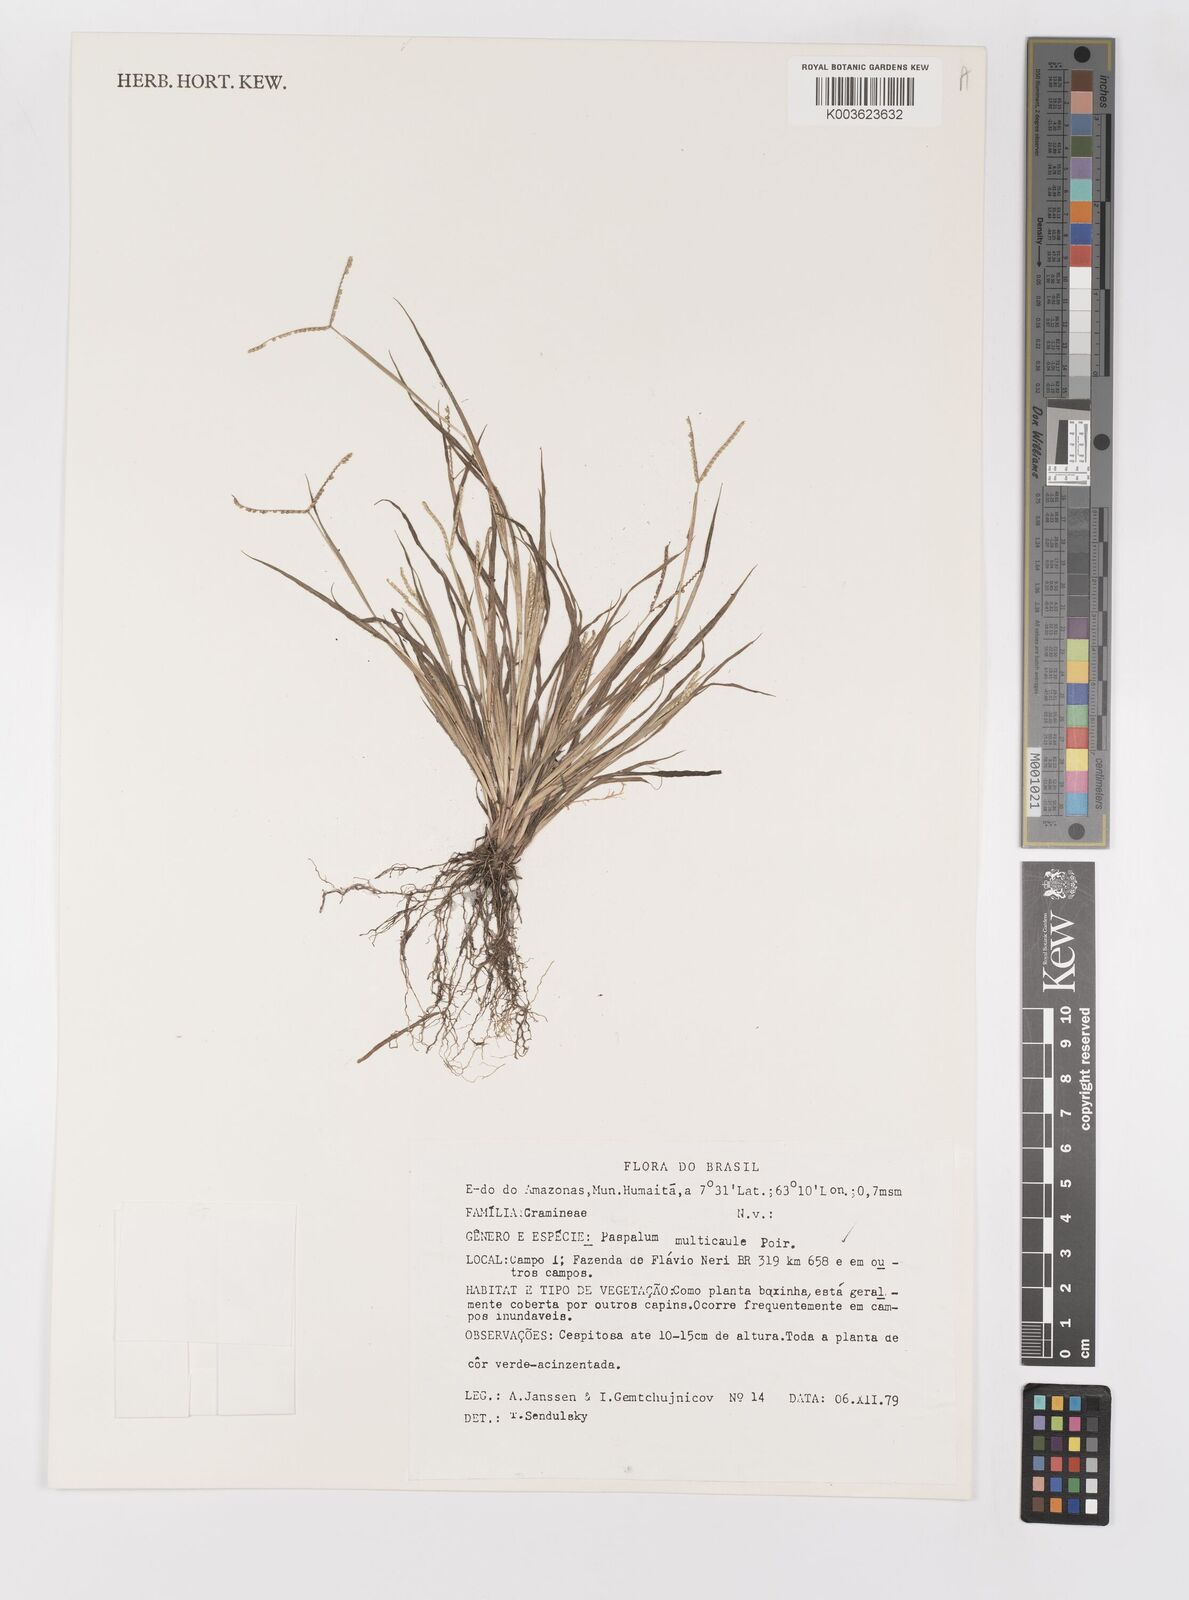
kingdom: Plantae
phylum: Tracheophyta
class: Liliopsida
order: Poales
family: Poaceae
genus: Paspalum
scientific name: Paspalum multicaule
